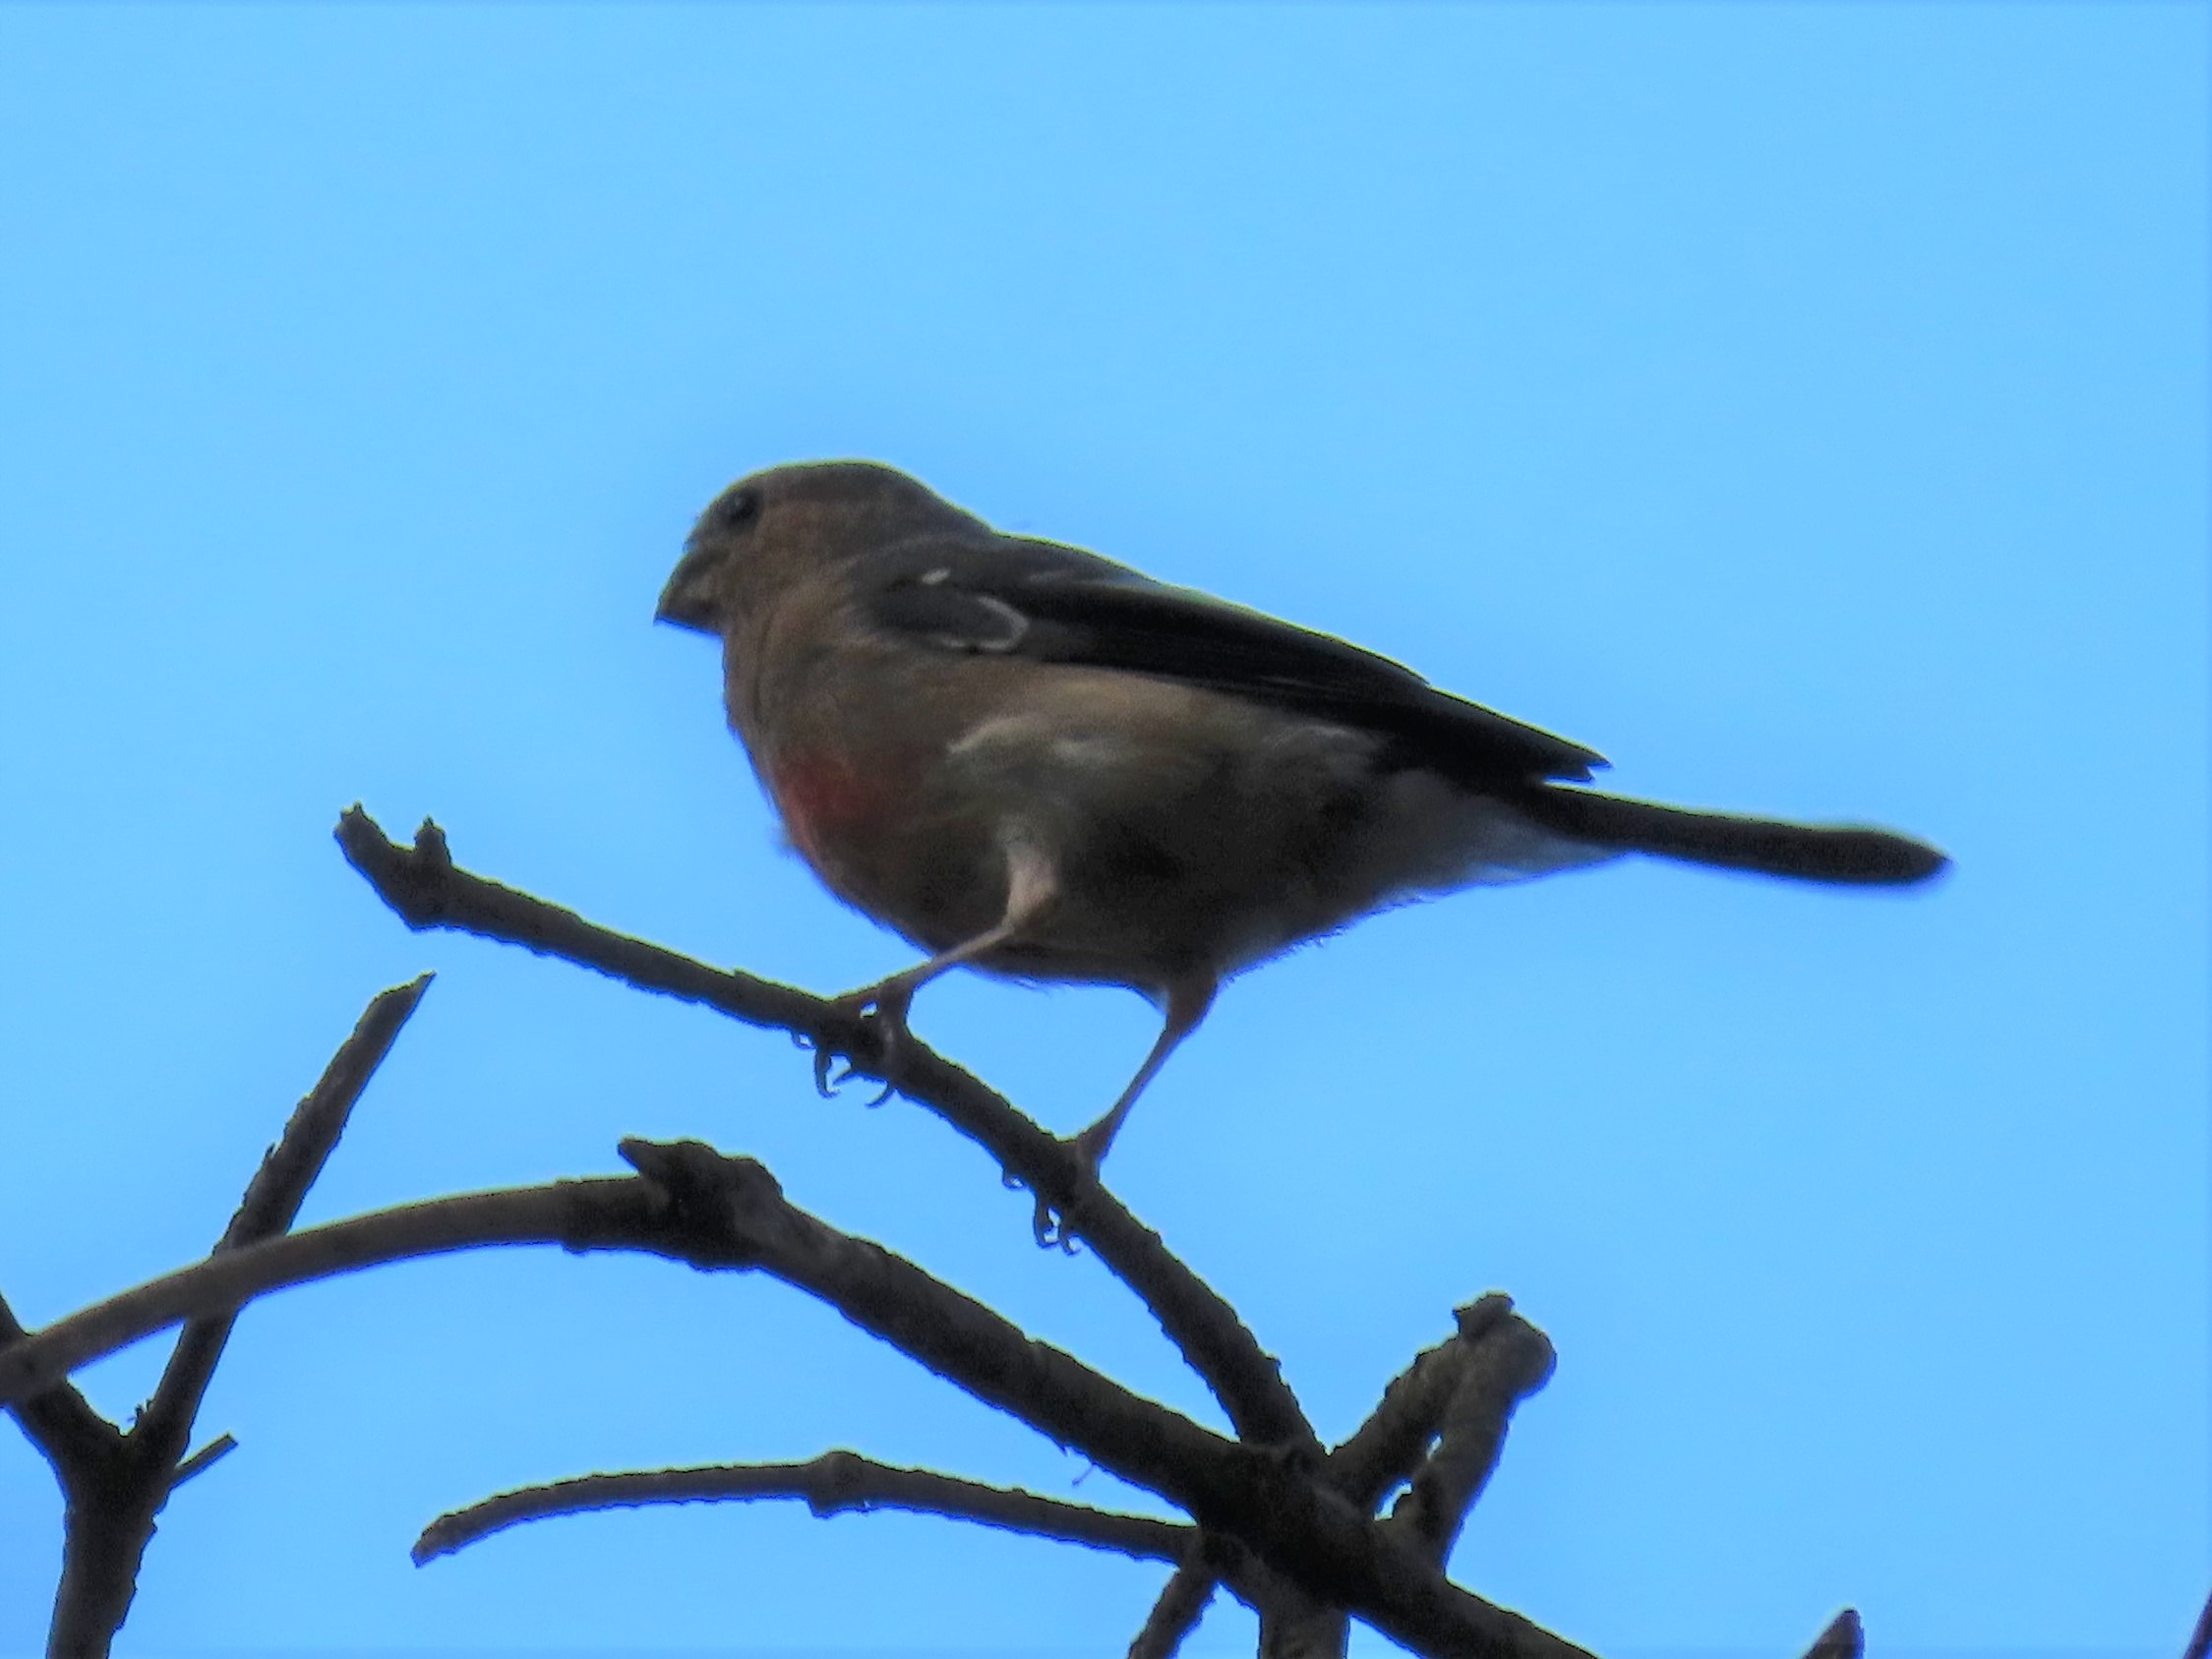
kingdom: Animalia
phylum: Chordata
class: Aves
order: Passeriformes
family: Fringillidae
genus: Pyrrhula
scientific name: Pyrrhula pyrrhula
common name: Dompap
